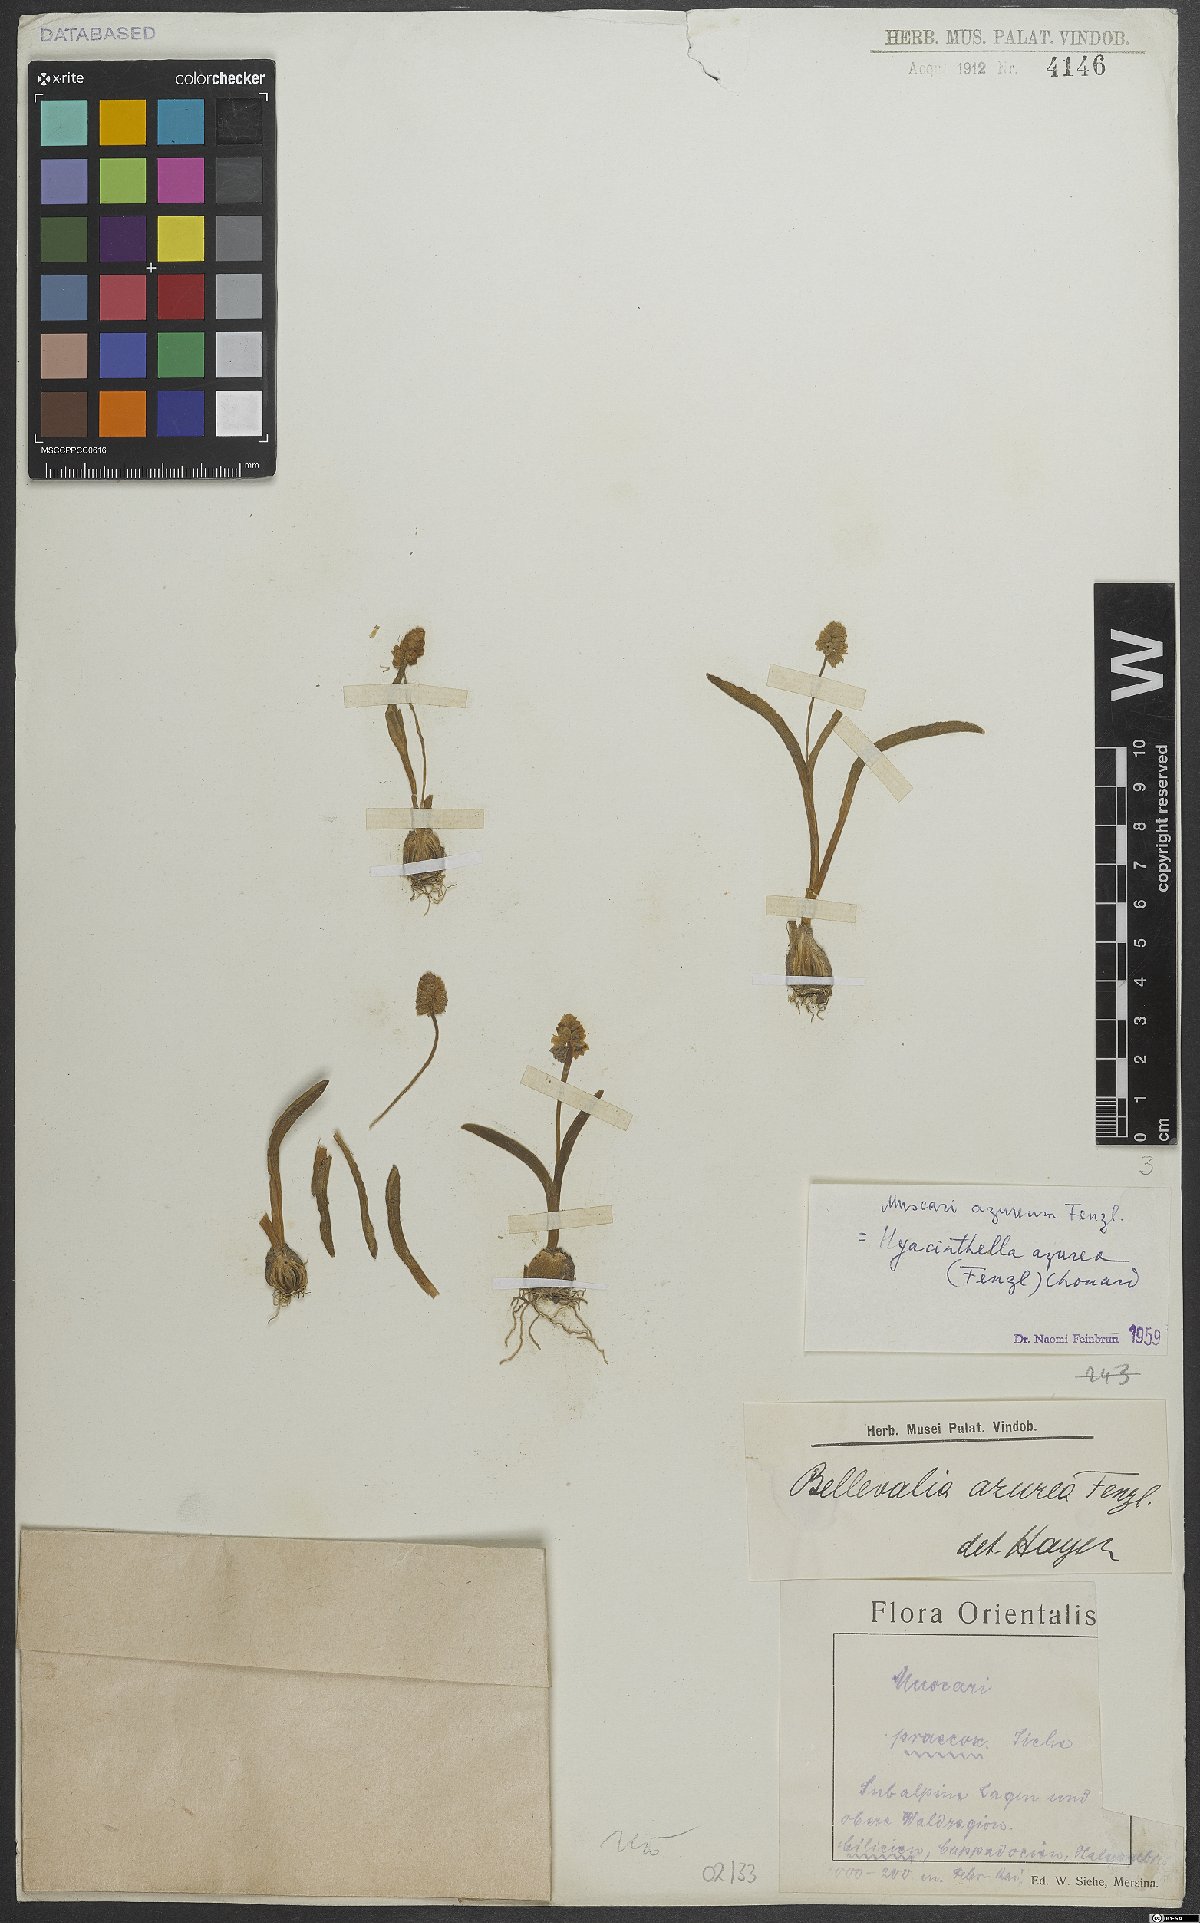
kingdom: Plantae
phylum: Tracheophyta
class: Liliopsida
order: Asparagales
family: Asparagaceae
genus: Muscari
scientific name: Muscari azureum
